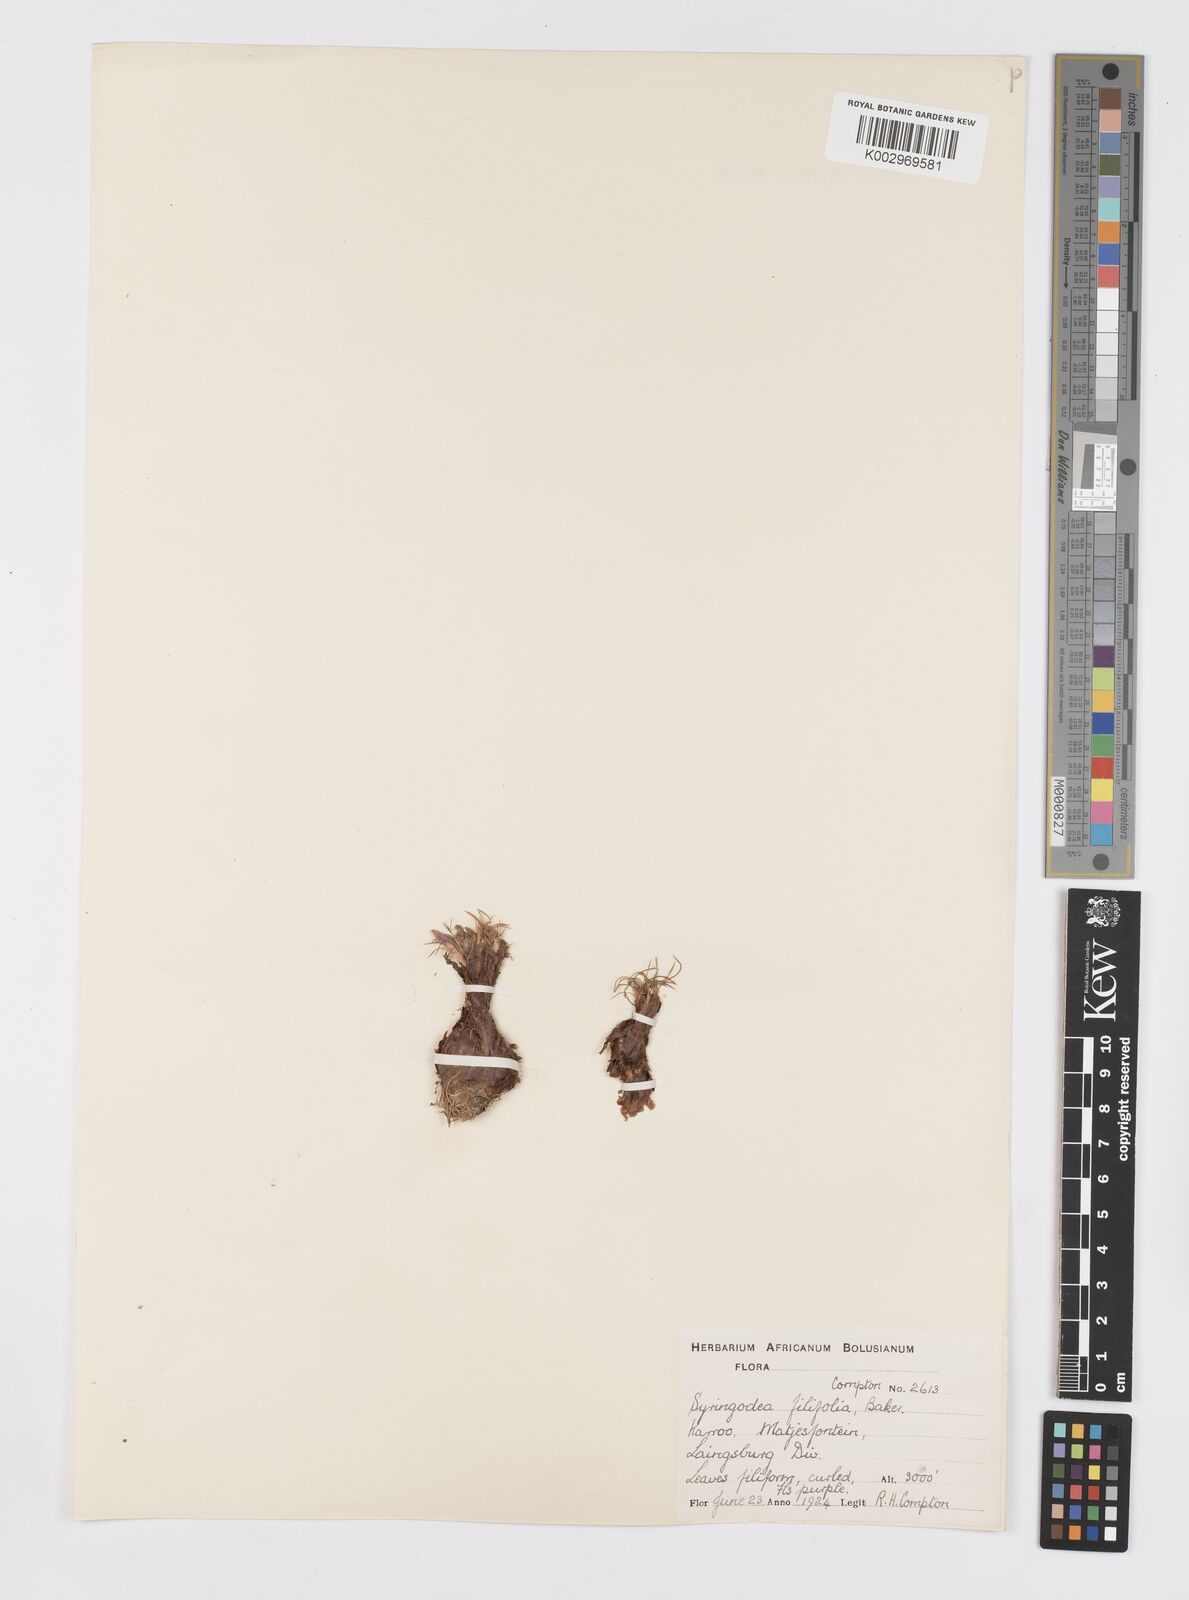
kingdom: Plantae
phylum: Tracheophyta
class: Liliopsida
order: Asparagales
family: Iridaceae
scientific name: Iridaceae
